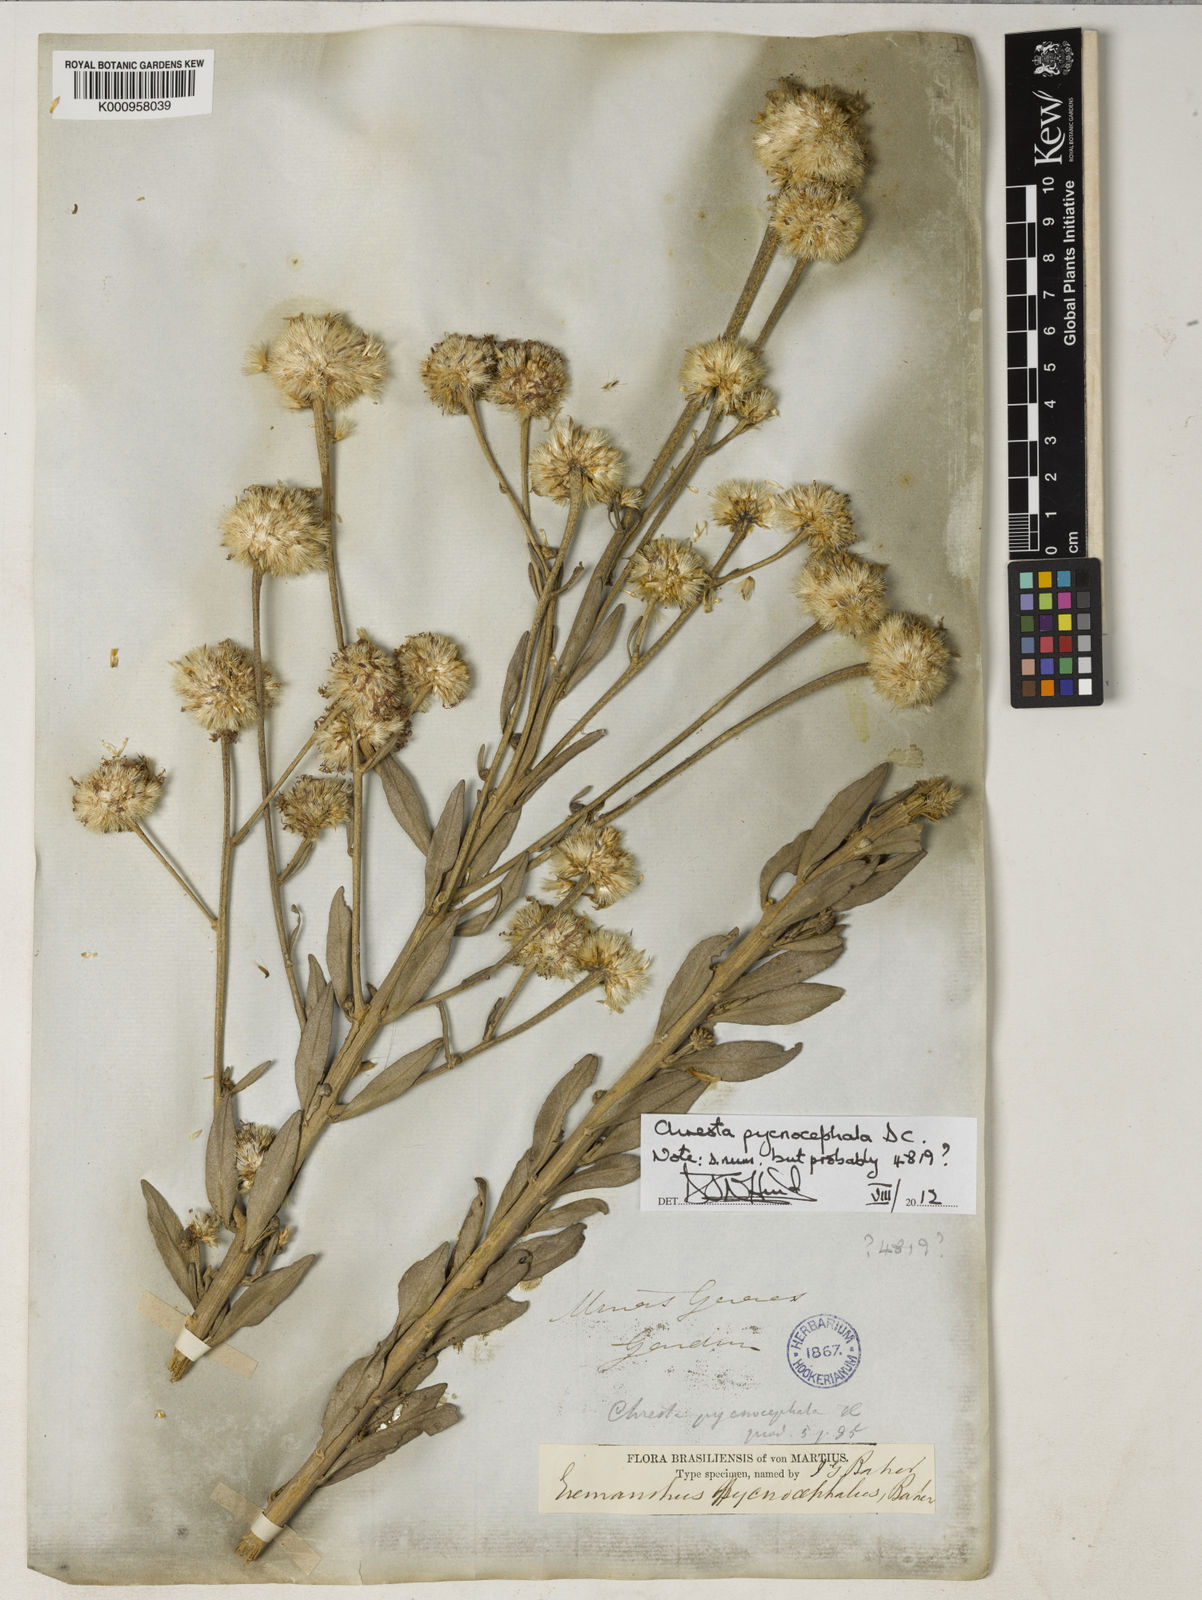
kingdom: Plantae
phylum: Tracheophyta
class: Magnoliopsida
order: Asterales
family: Asteraceae
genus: Chresta
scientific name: Chresta pycnocephala
